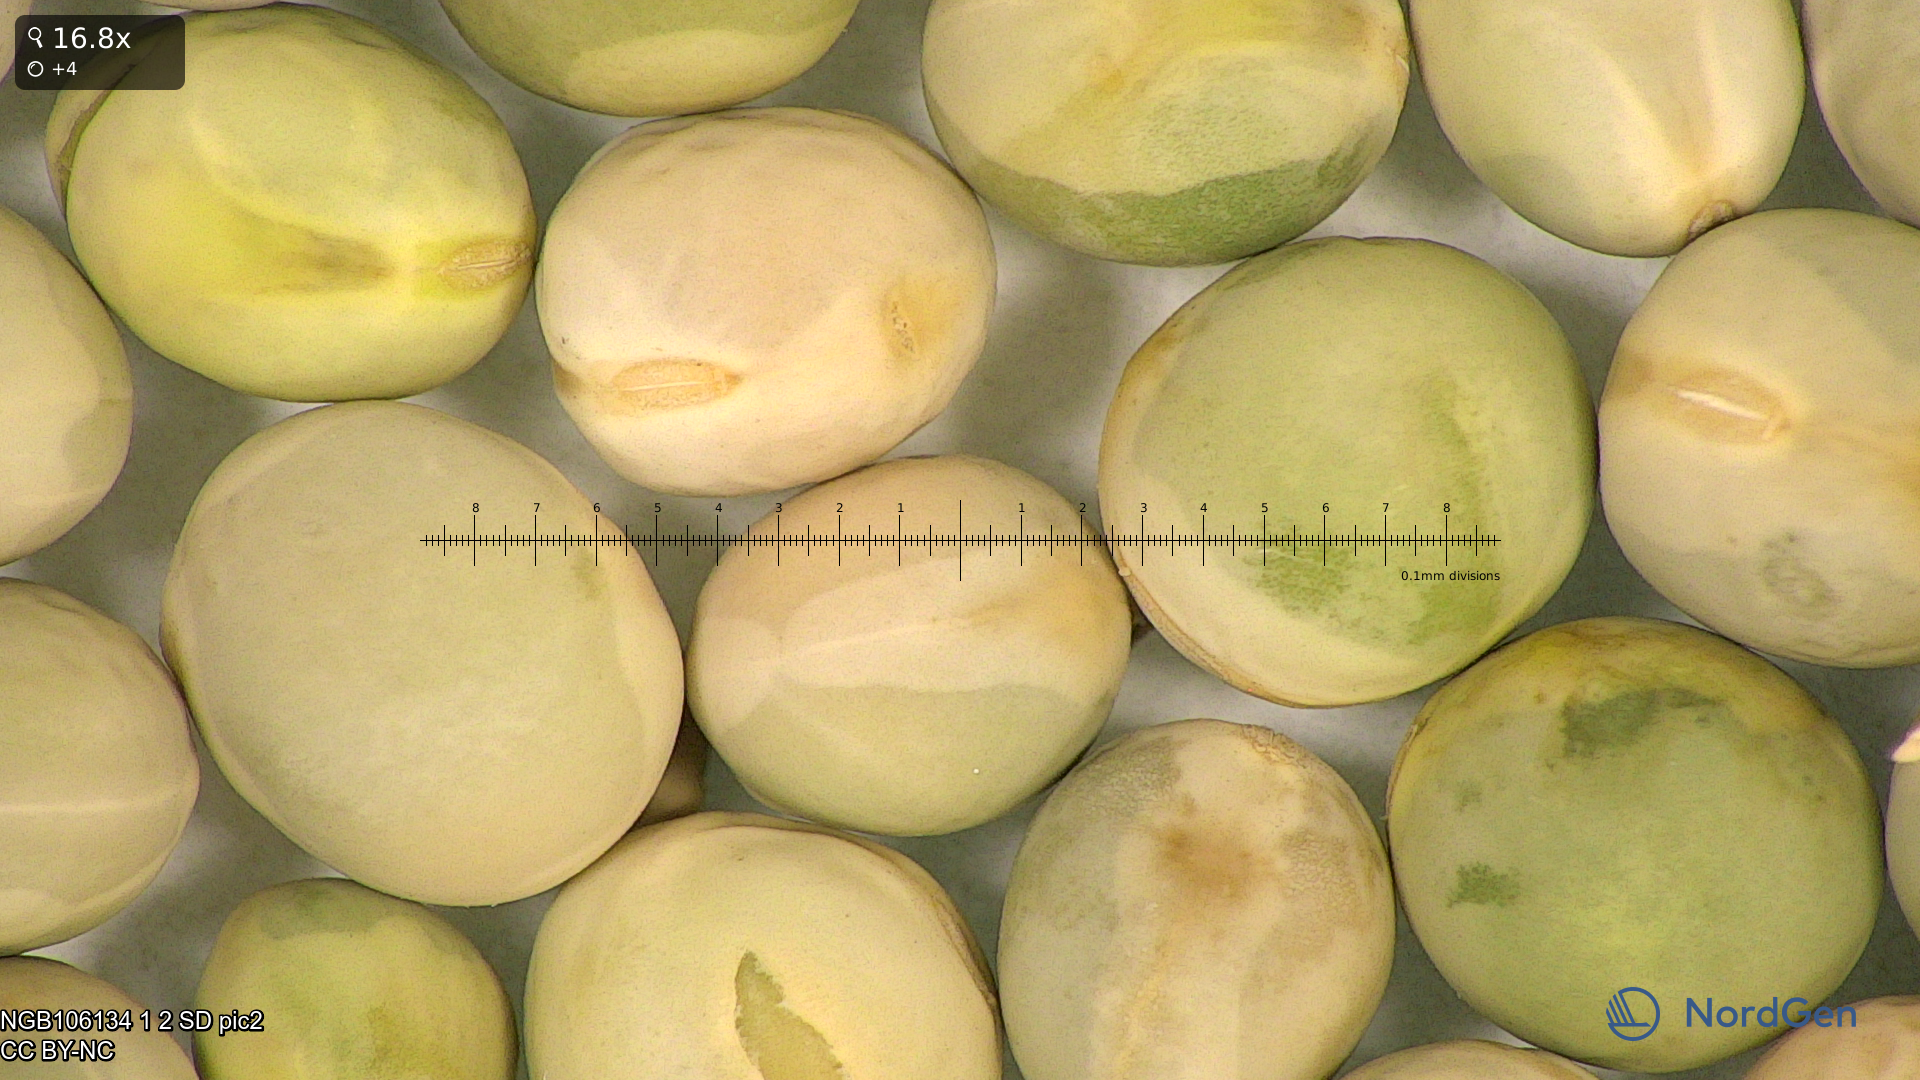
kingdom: Plantae
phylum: Tracheophyta
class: Magnoliopsida
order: Fabales
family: Fabaceae
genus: Lathyrus
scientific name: Lathyrus oleraceus
